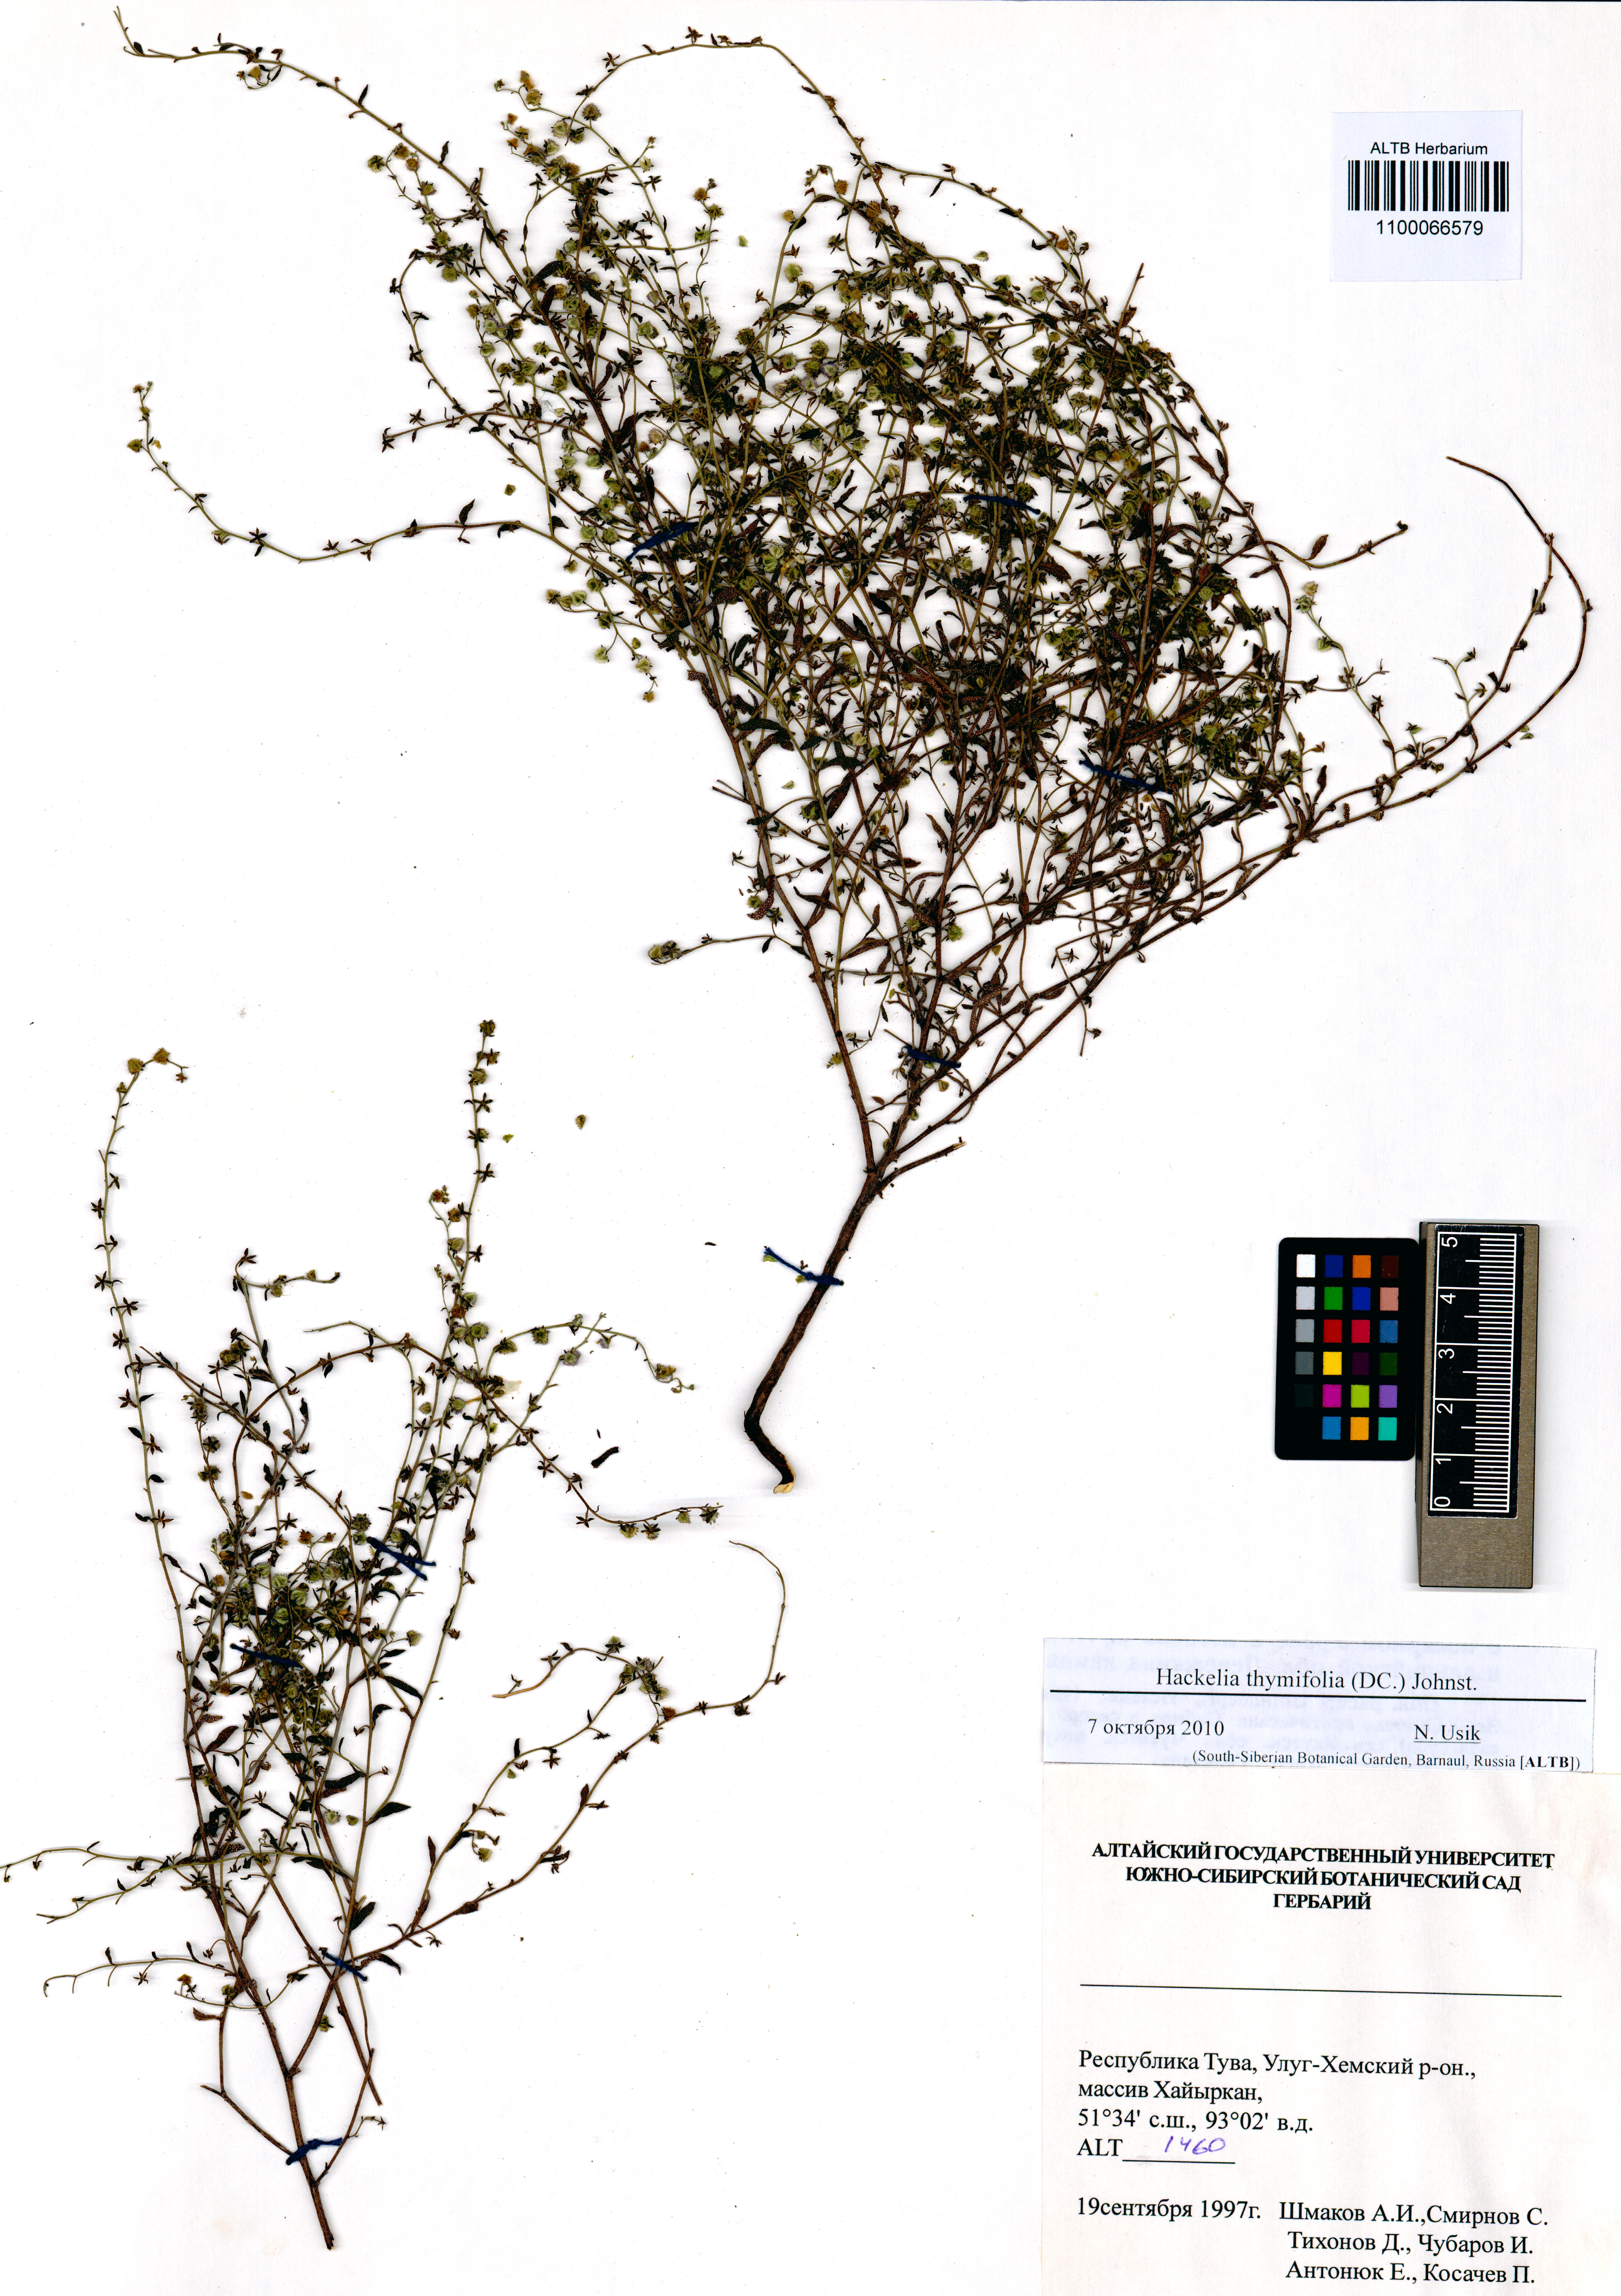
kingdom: Plantae
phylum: Tracheophyta
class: Magnoliopsida
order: Boraginales
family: Boraginaceae
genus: Eritrichium
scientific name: Eritrichium thymifolium
